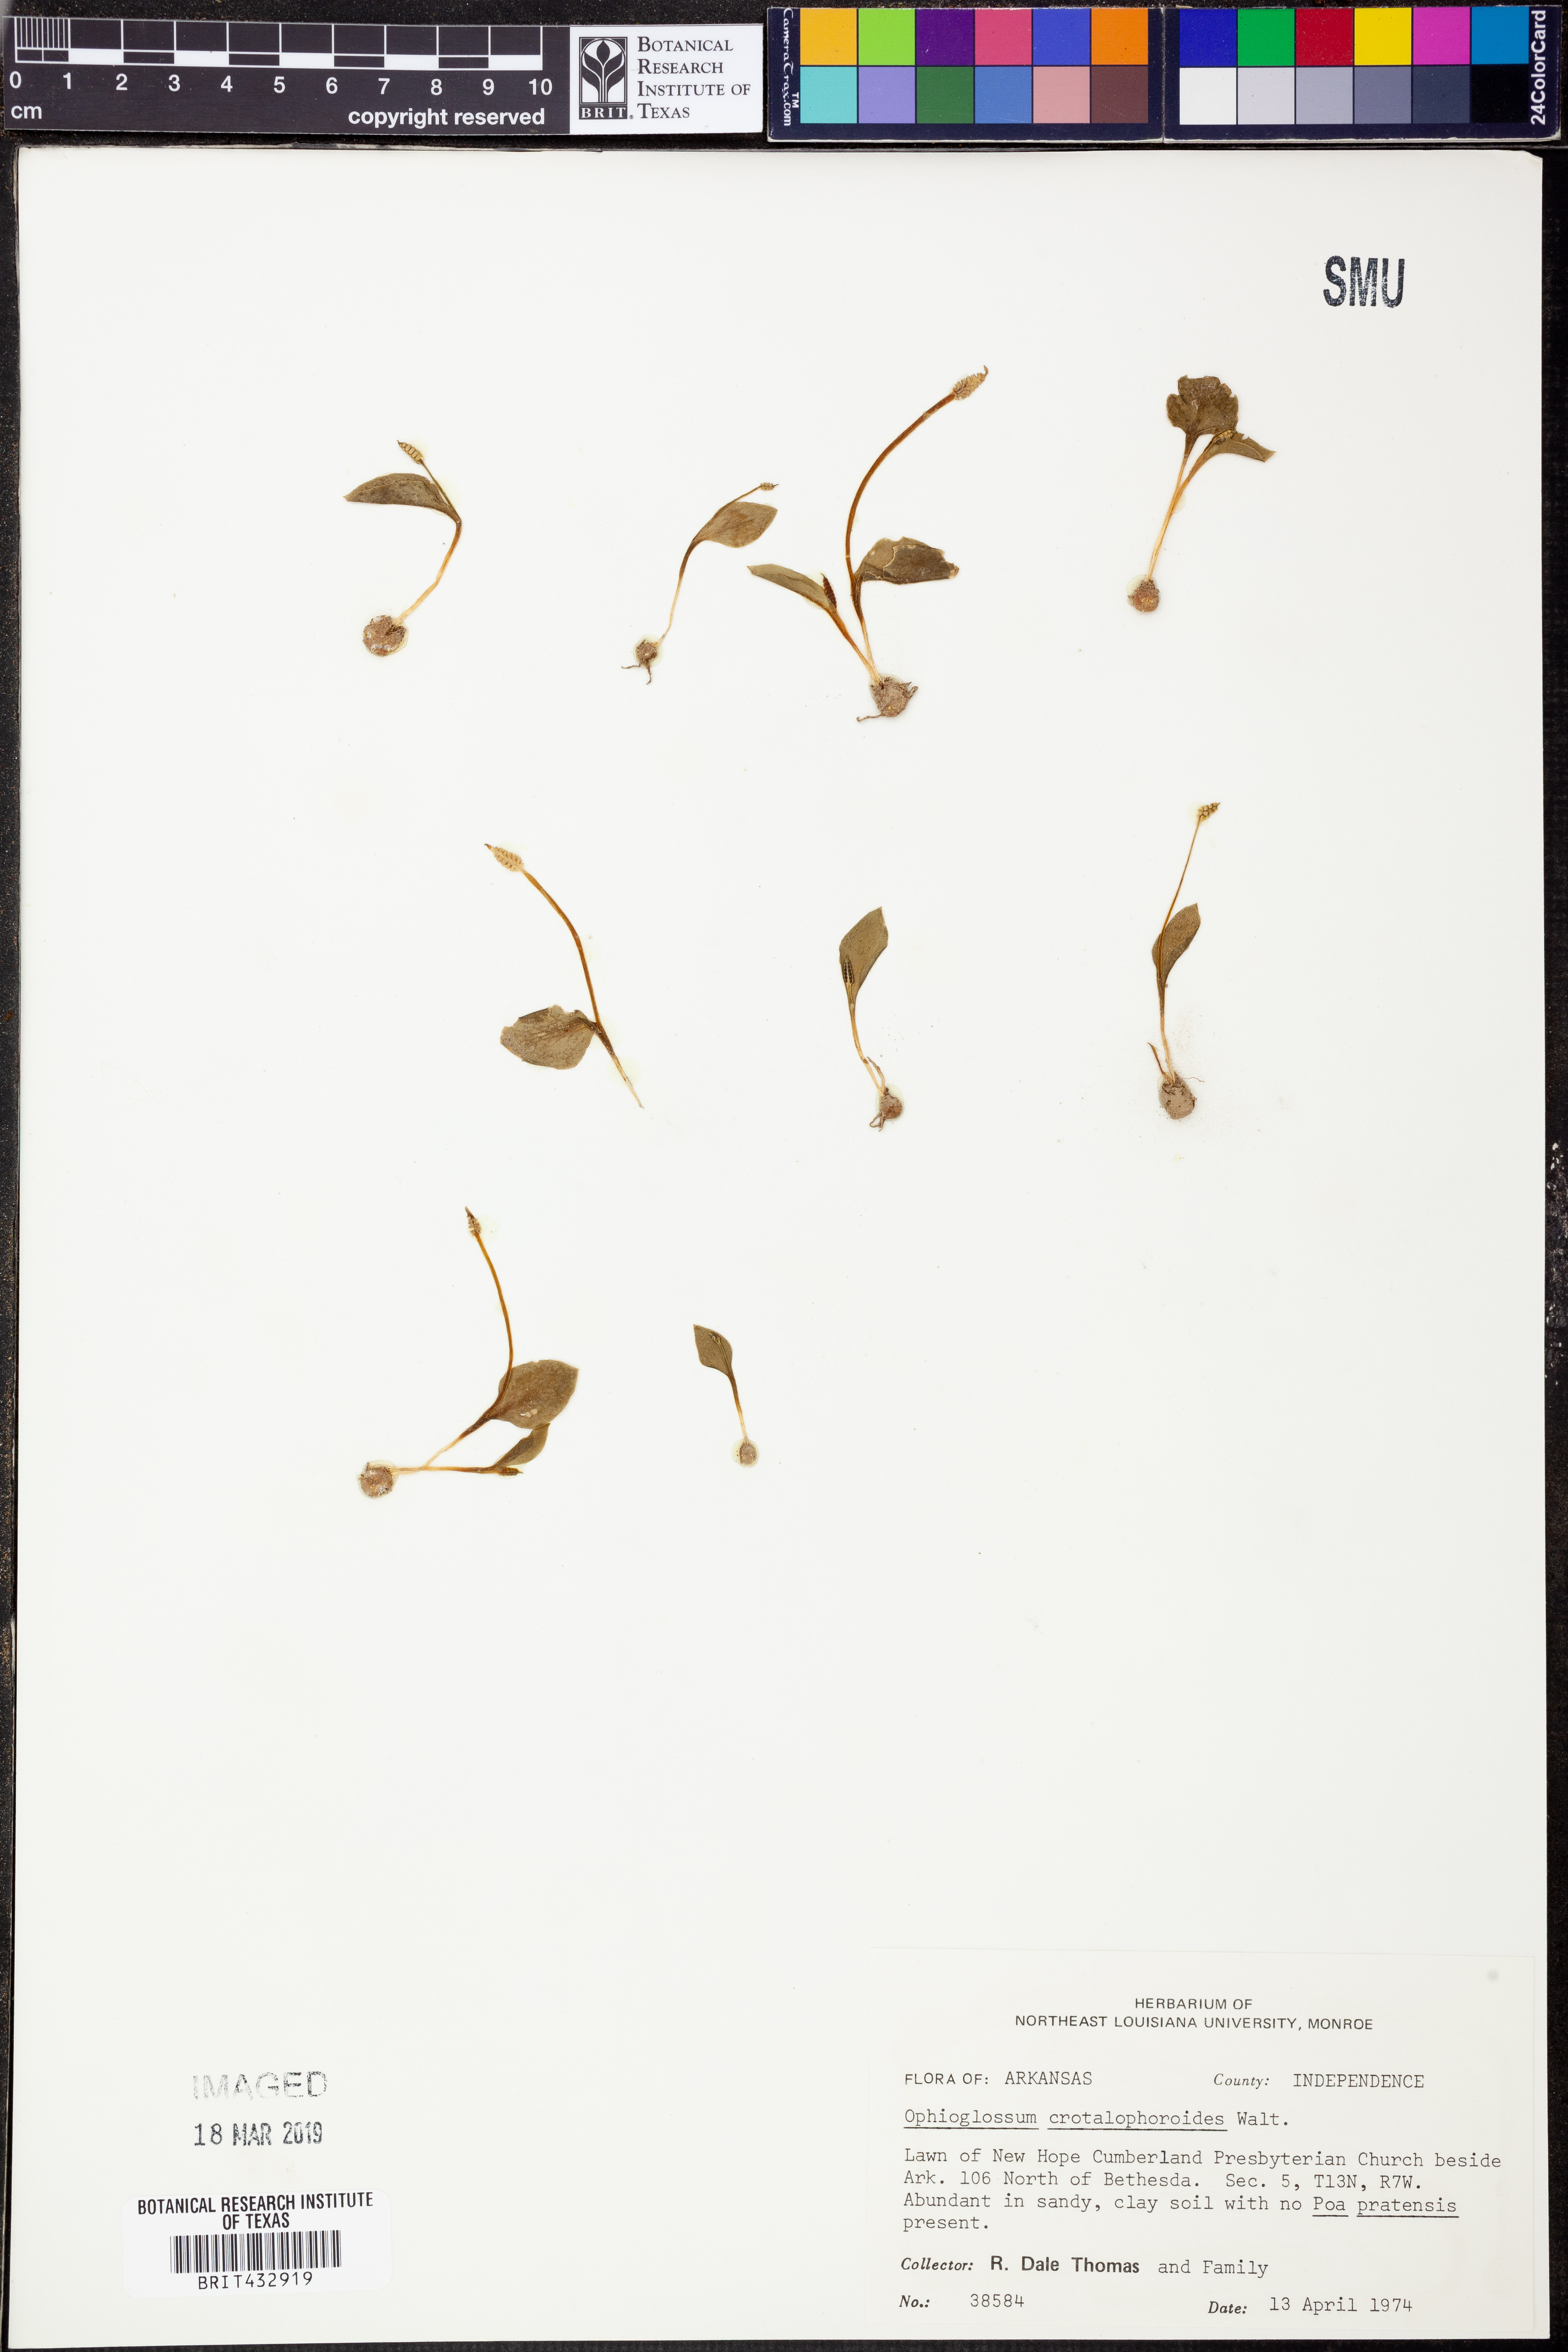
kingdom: Plantae
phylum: Tracheophyta
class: Polypodiopsida
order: Ophioglossales
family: Ophioglossaceae
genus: Ophioglossum
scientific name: Ophioglossum crotalophoroides
